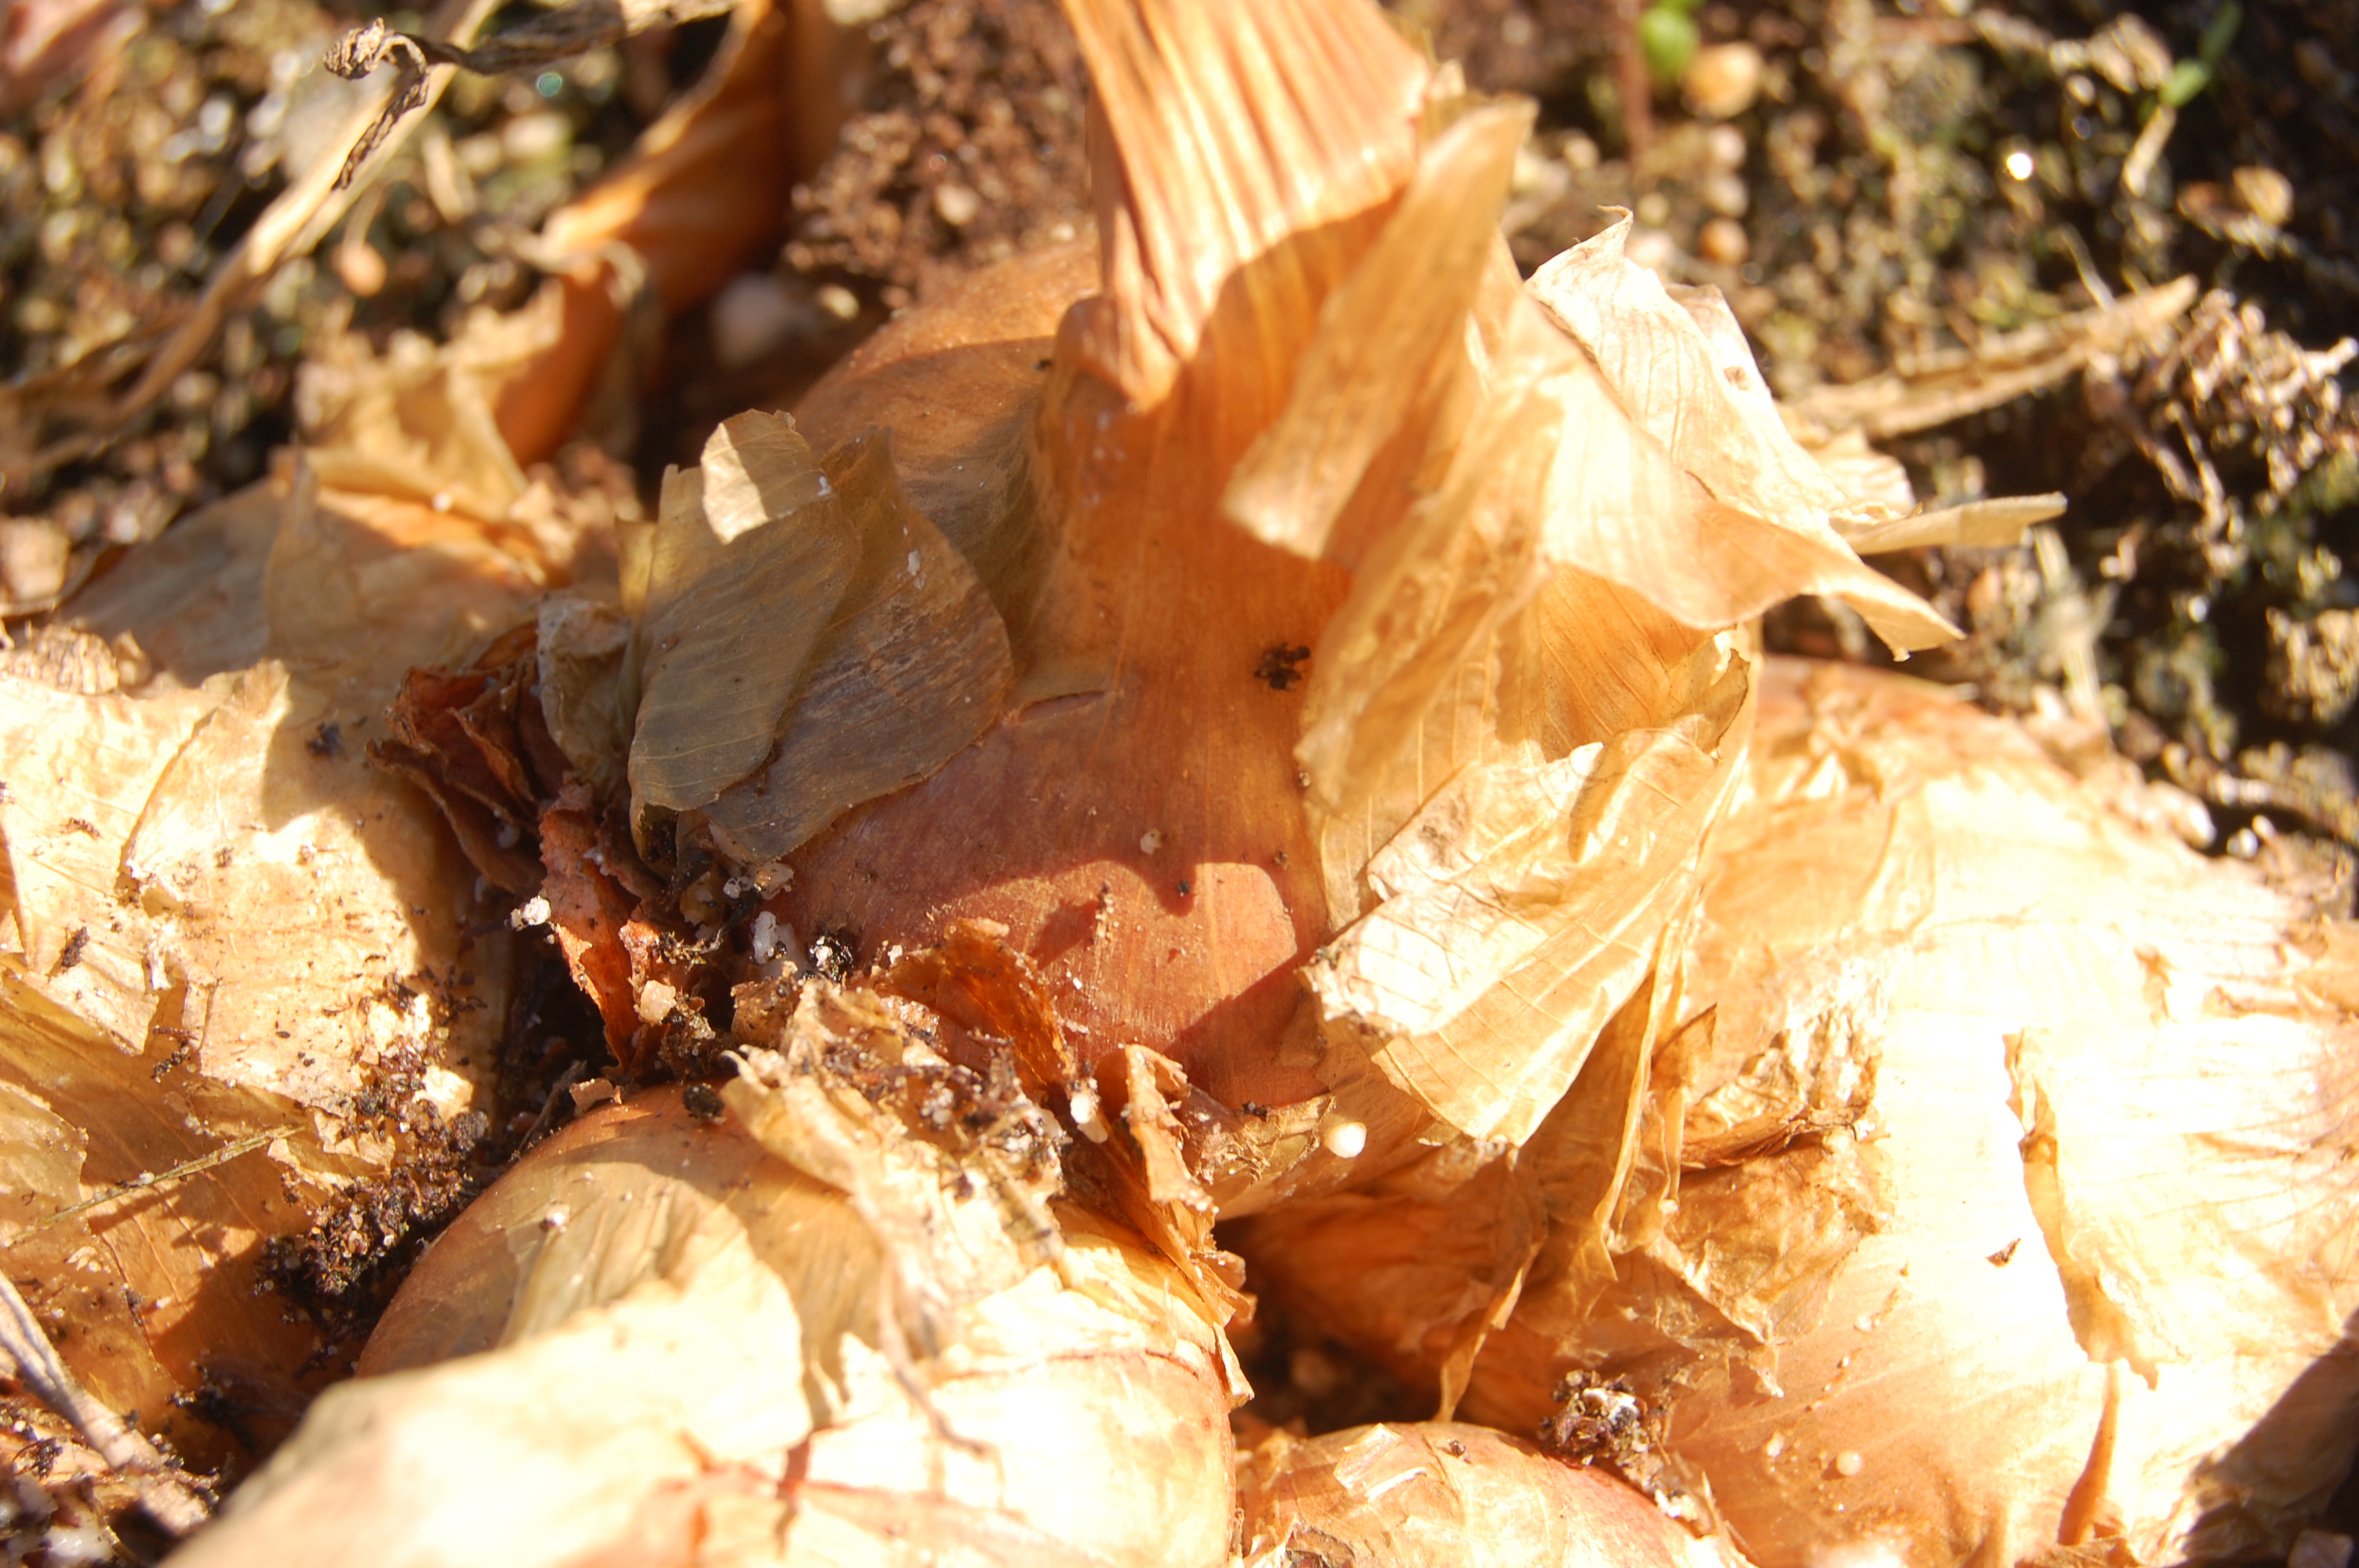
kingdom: Plantae
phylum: Tracheophyta
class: Liliopsida
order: Asparagales
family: Amaryllidaceae
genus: Allium
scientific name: Allium cepa
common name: Onion
